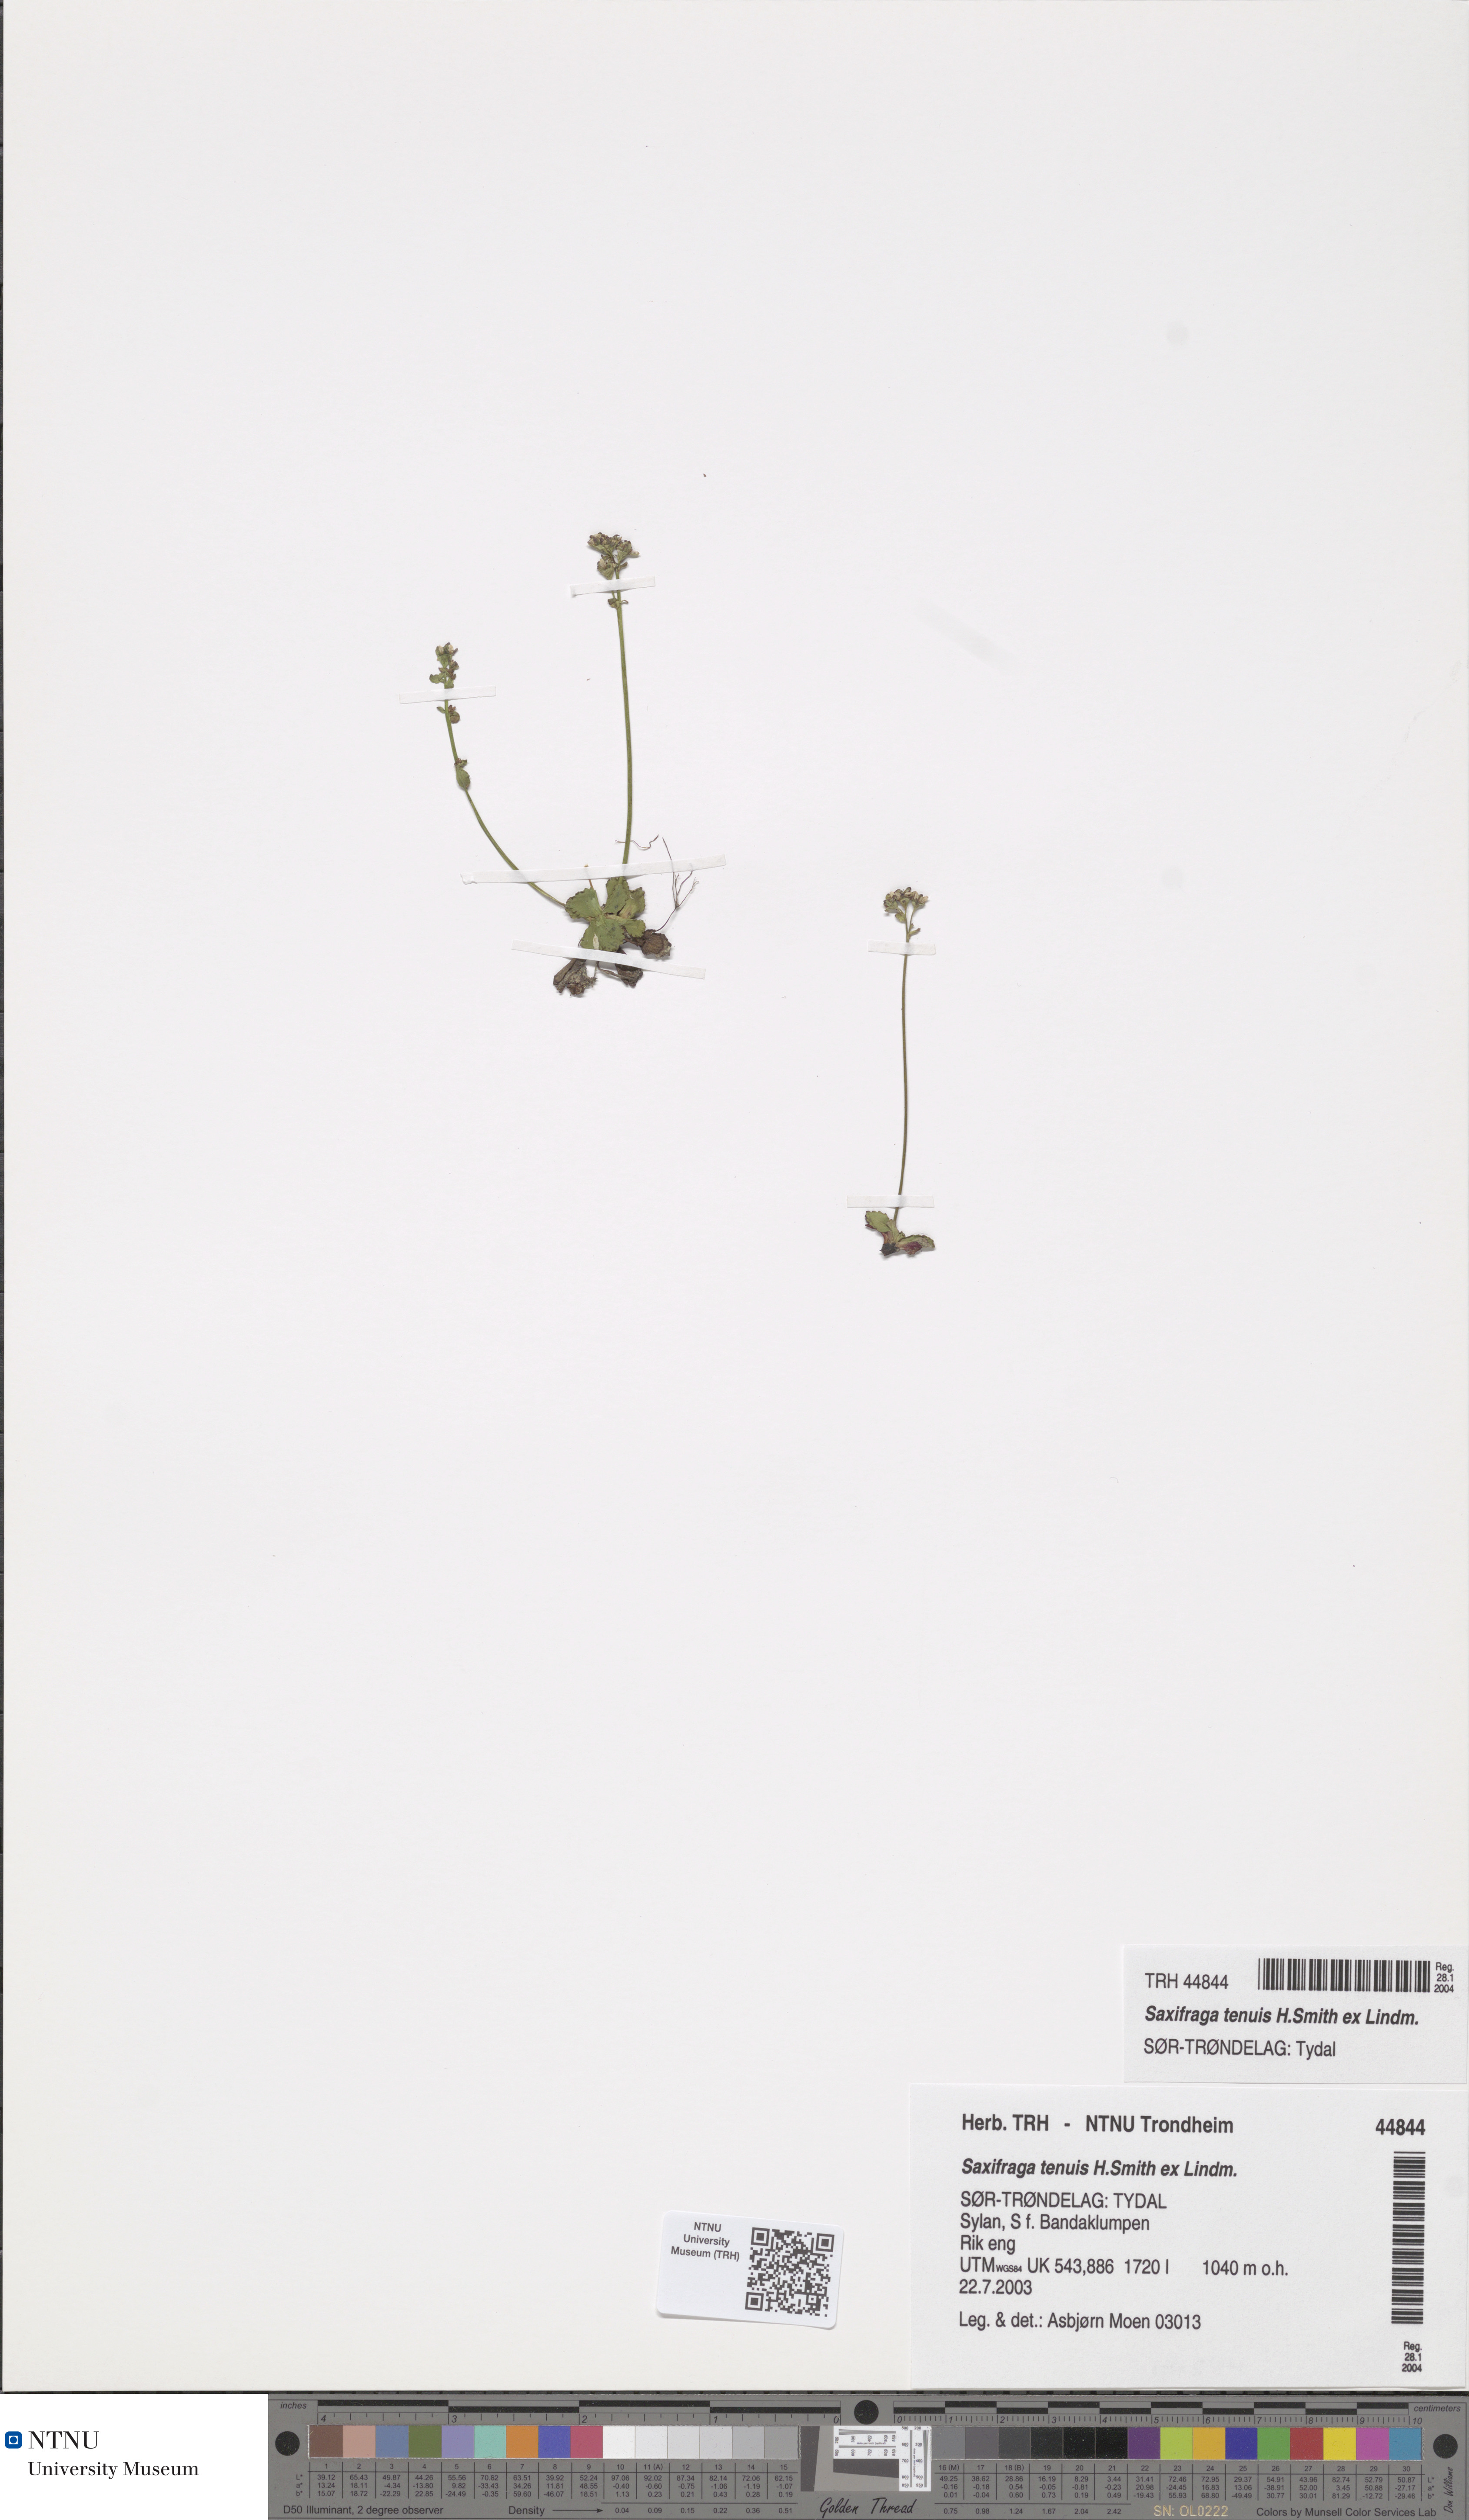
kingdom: Plantae
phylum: Tracheophyta
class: Magnoliopsida
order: Saxifragales
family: Saxifragaceae
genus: Micranthes
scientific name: Micranthes tenuis
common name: Ottertail pass saxifrage
